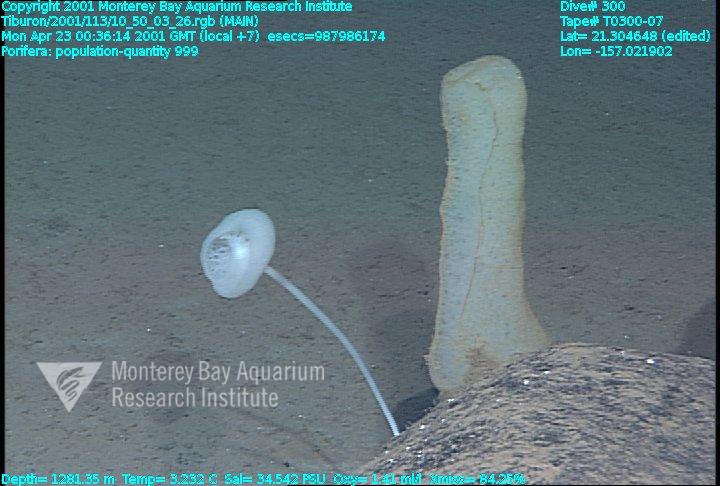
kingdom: Animalia
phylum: Porifera
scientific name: Porifera
